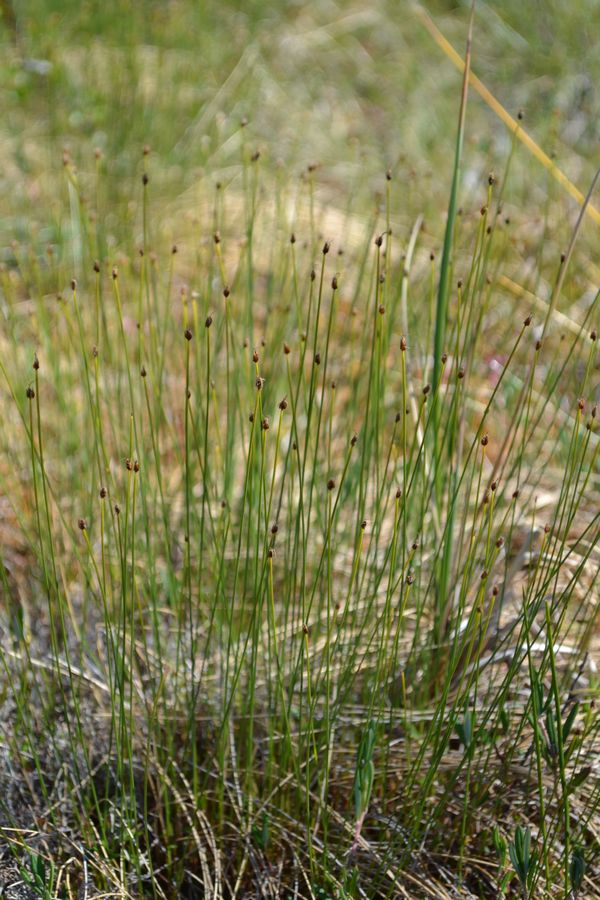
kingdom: Plantae
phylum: Tracheophyta
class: Liliopsida
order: Poales
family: Cyperaceae
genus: Trichophorum
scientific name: Trichophorum cespitosum
